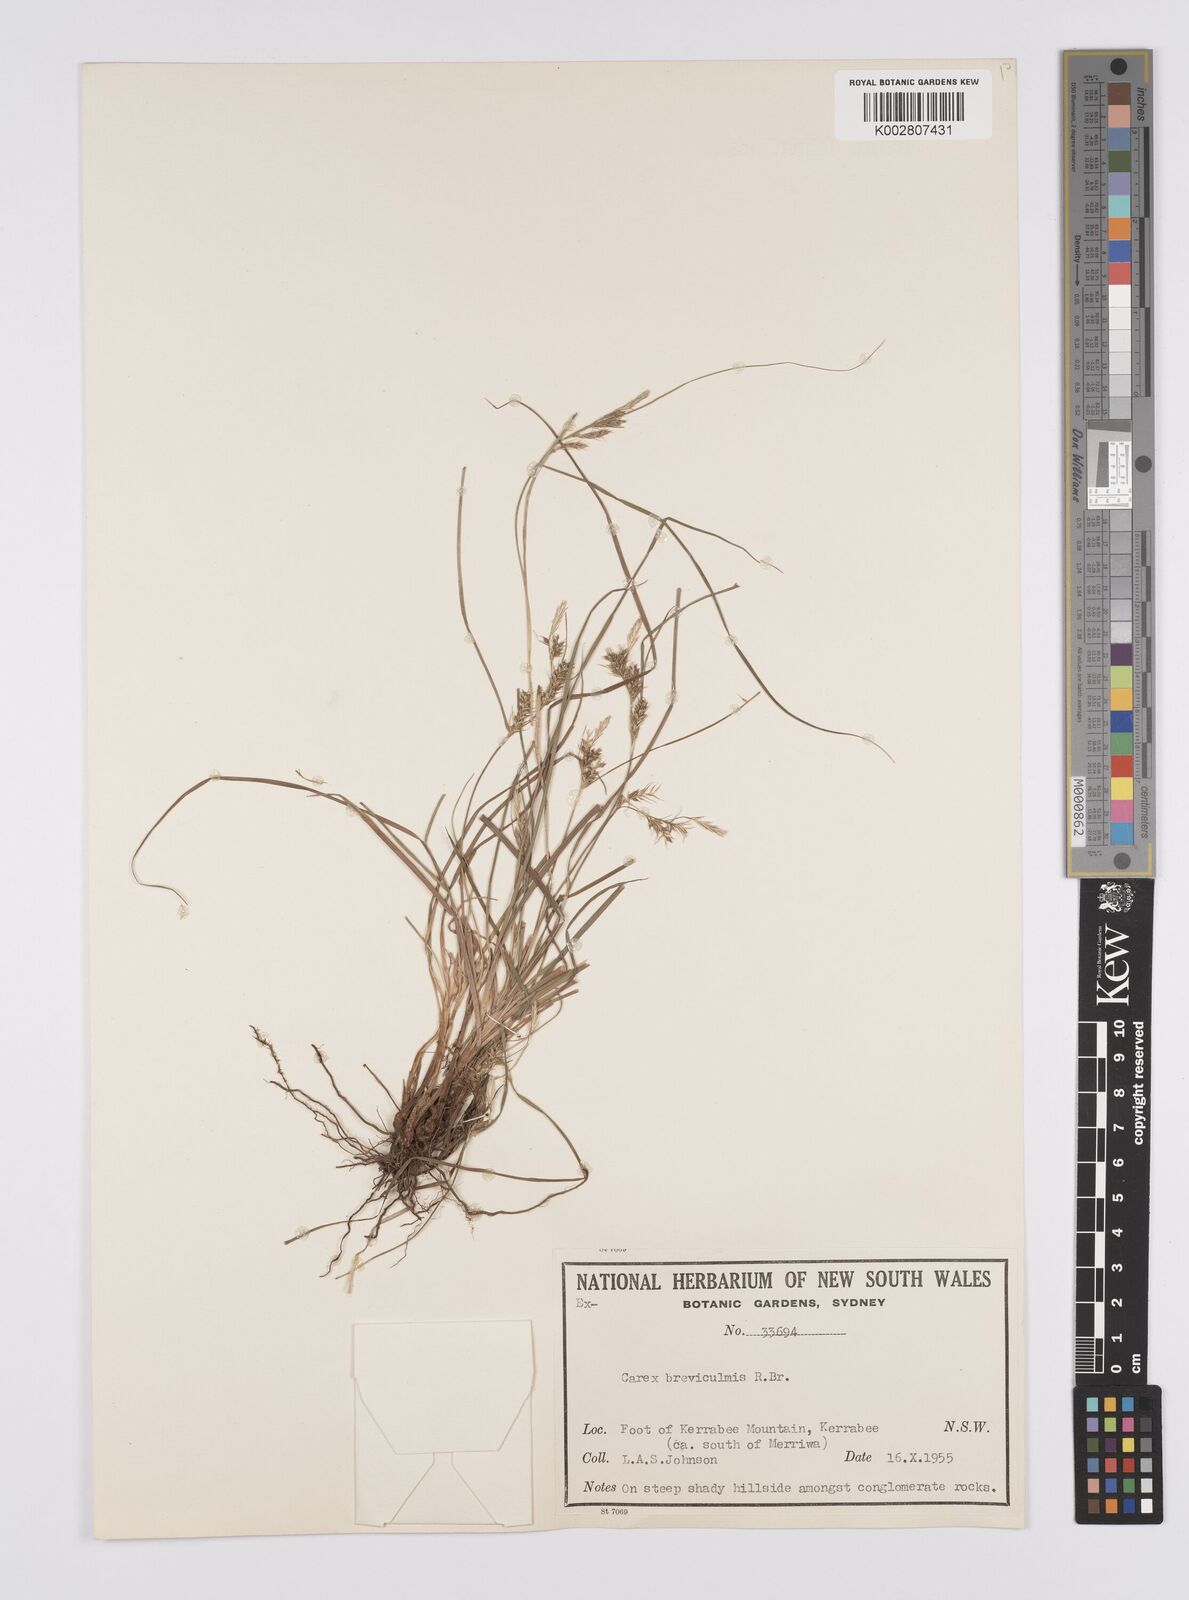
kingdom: Plantae
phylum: Tracheophyta
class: Liliopsida
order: Poales
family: Cyperaceae
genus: Carex
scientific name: Carex breviculmis
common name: Asian shortstem sedge
